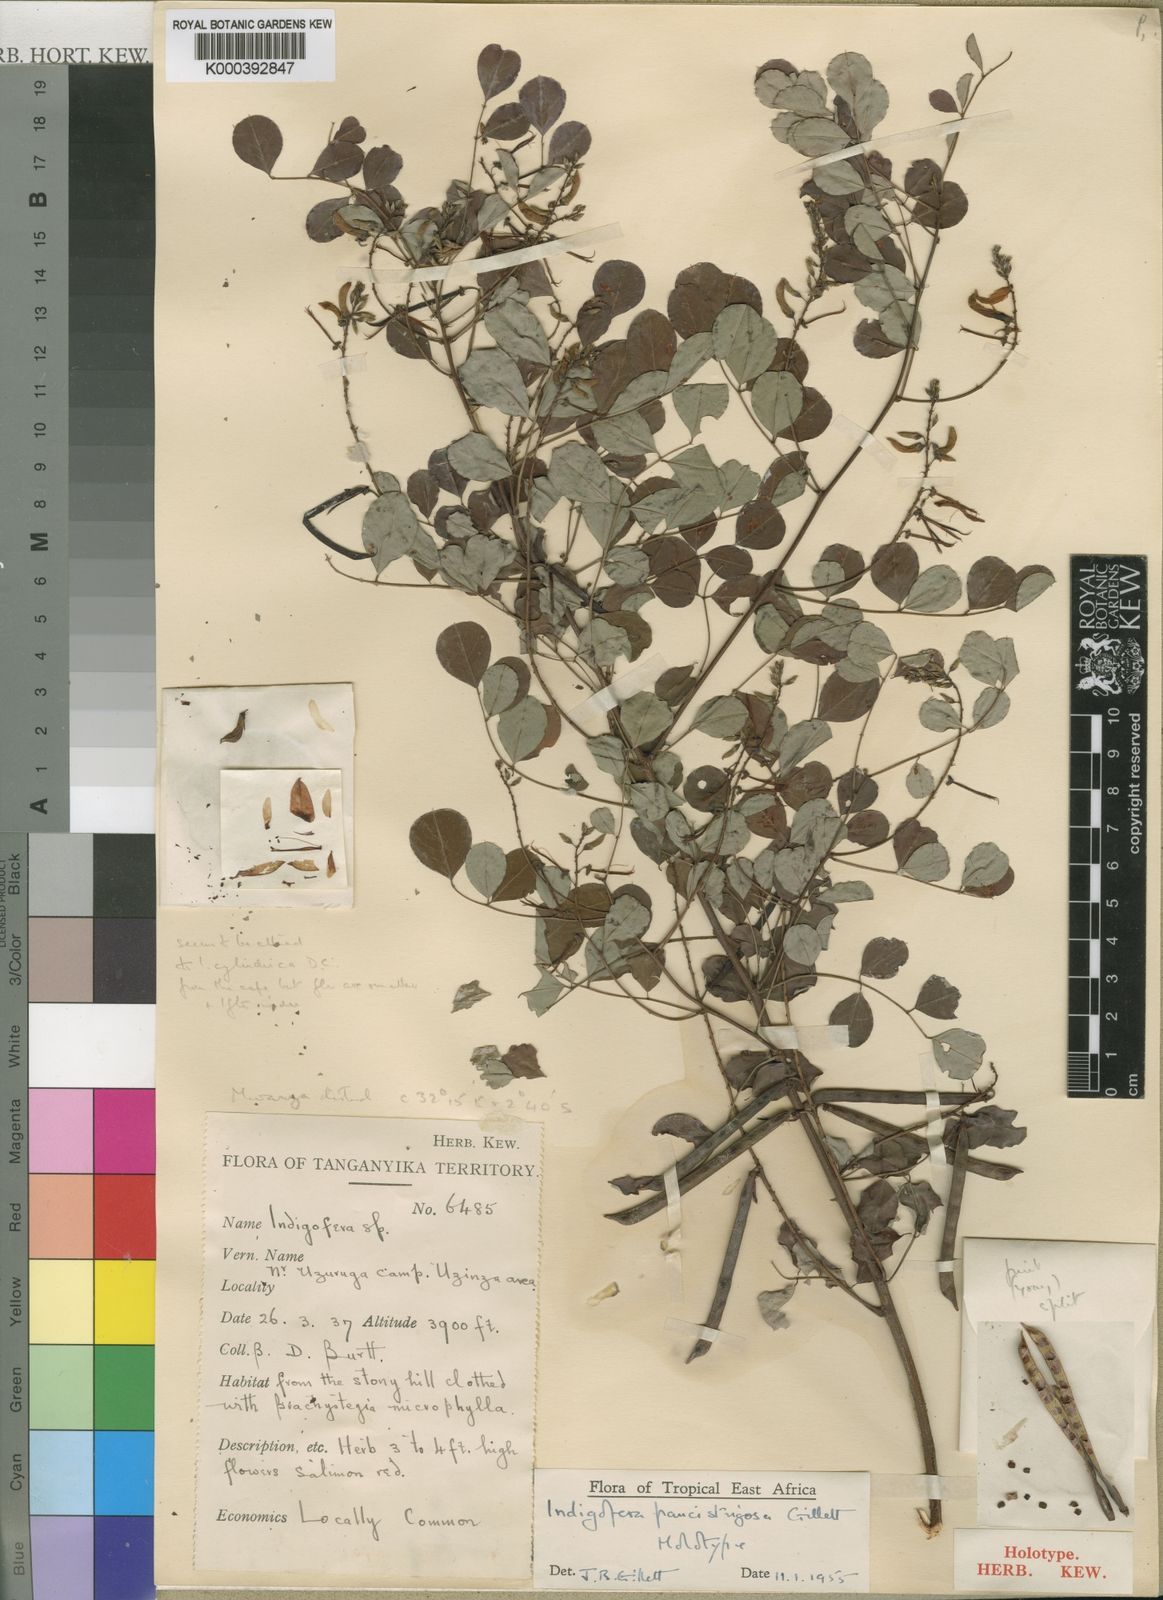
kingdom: Plantae
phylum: Tracheophyta
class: Magnoliopsida
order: Fabales
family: Fabaceae
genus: Indigofera
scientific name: Indigofera paucistrigosa
